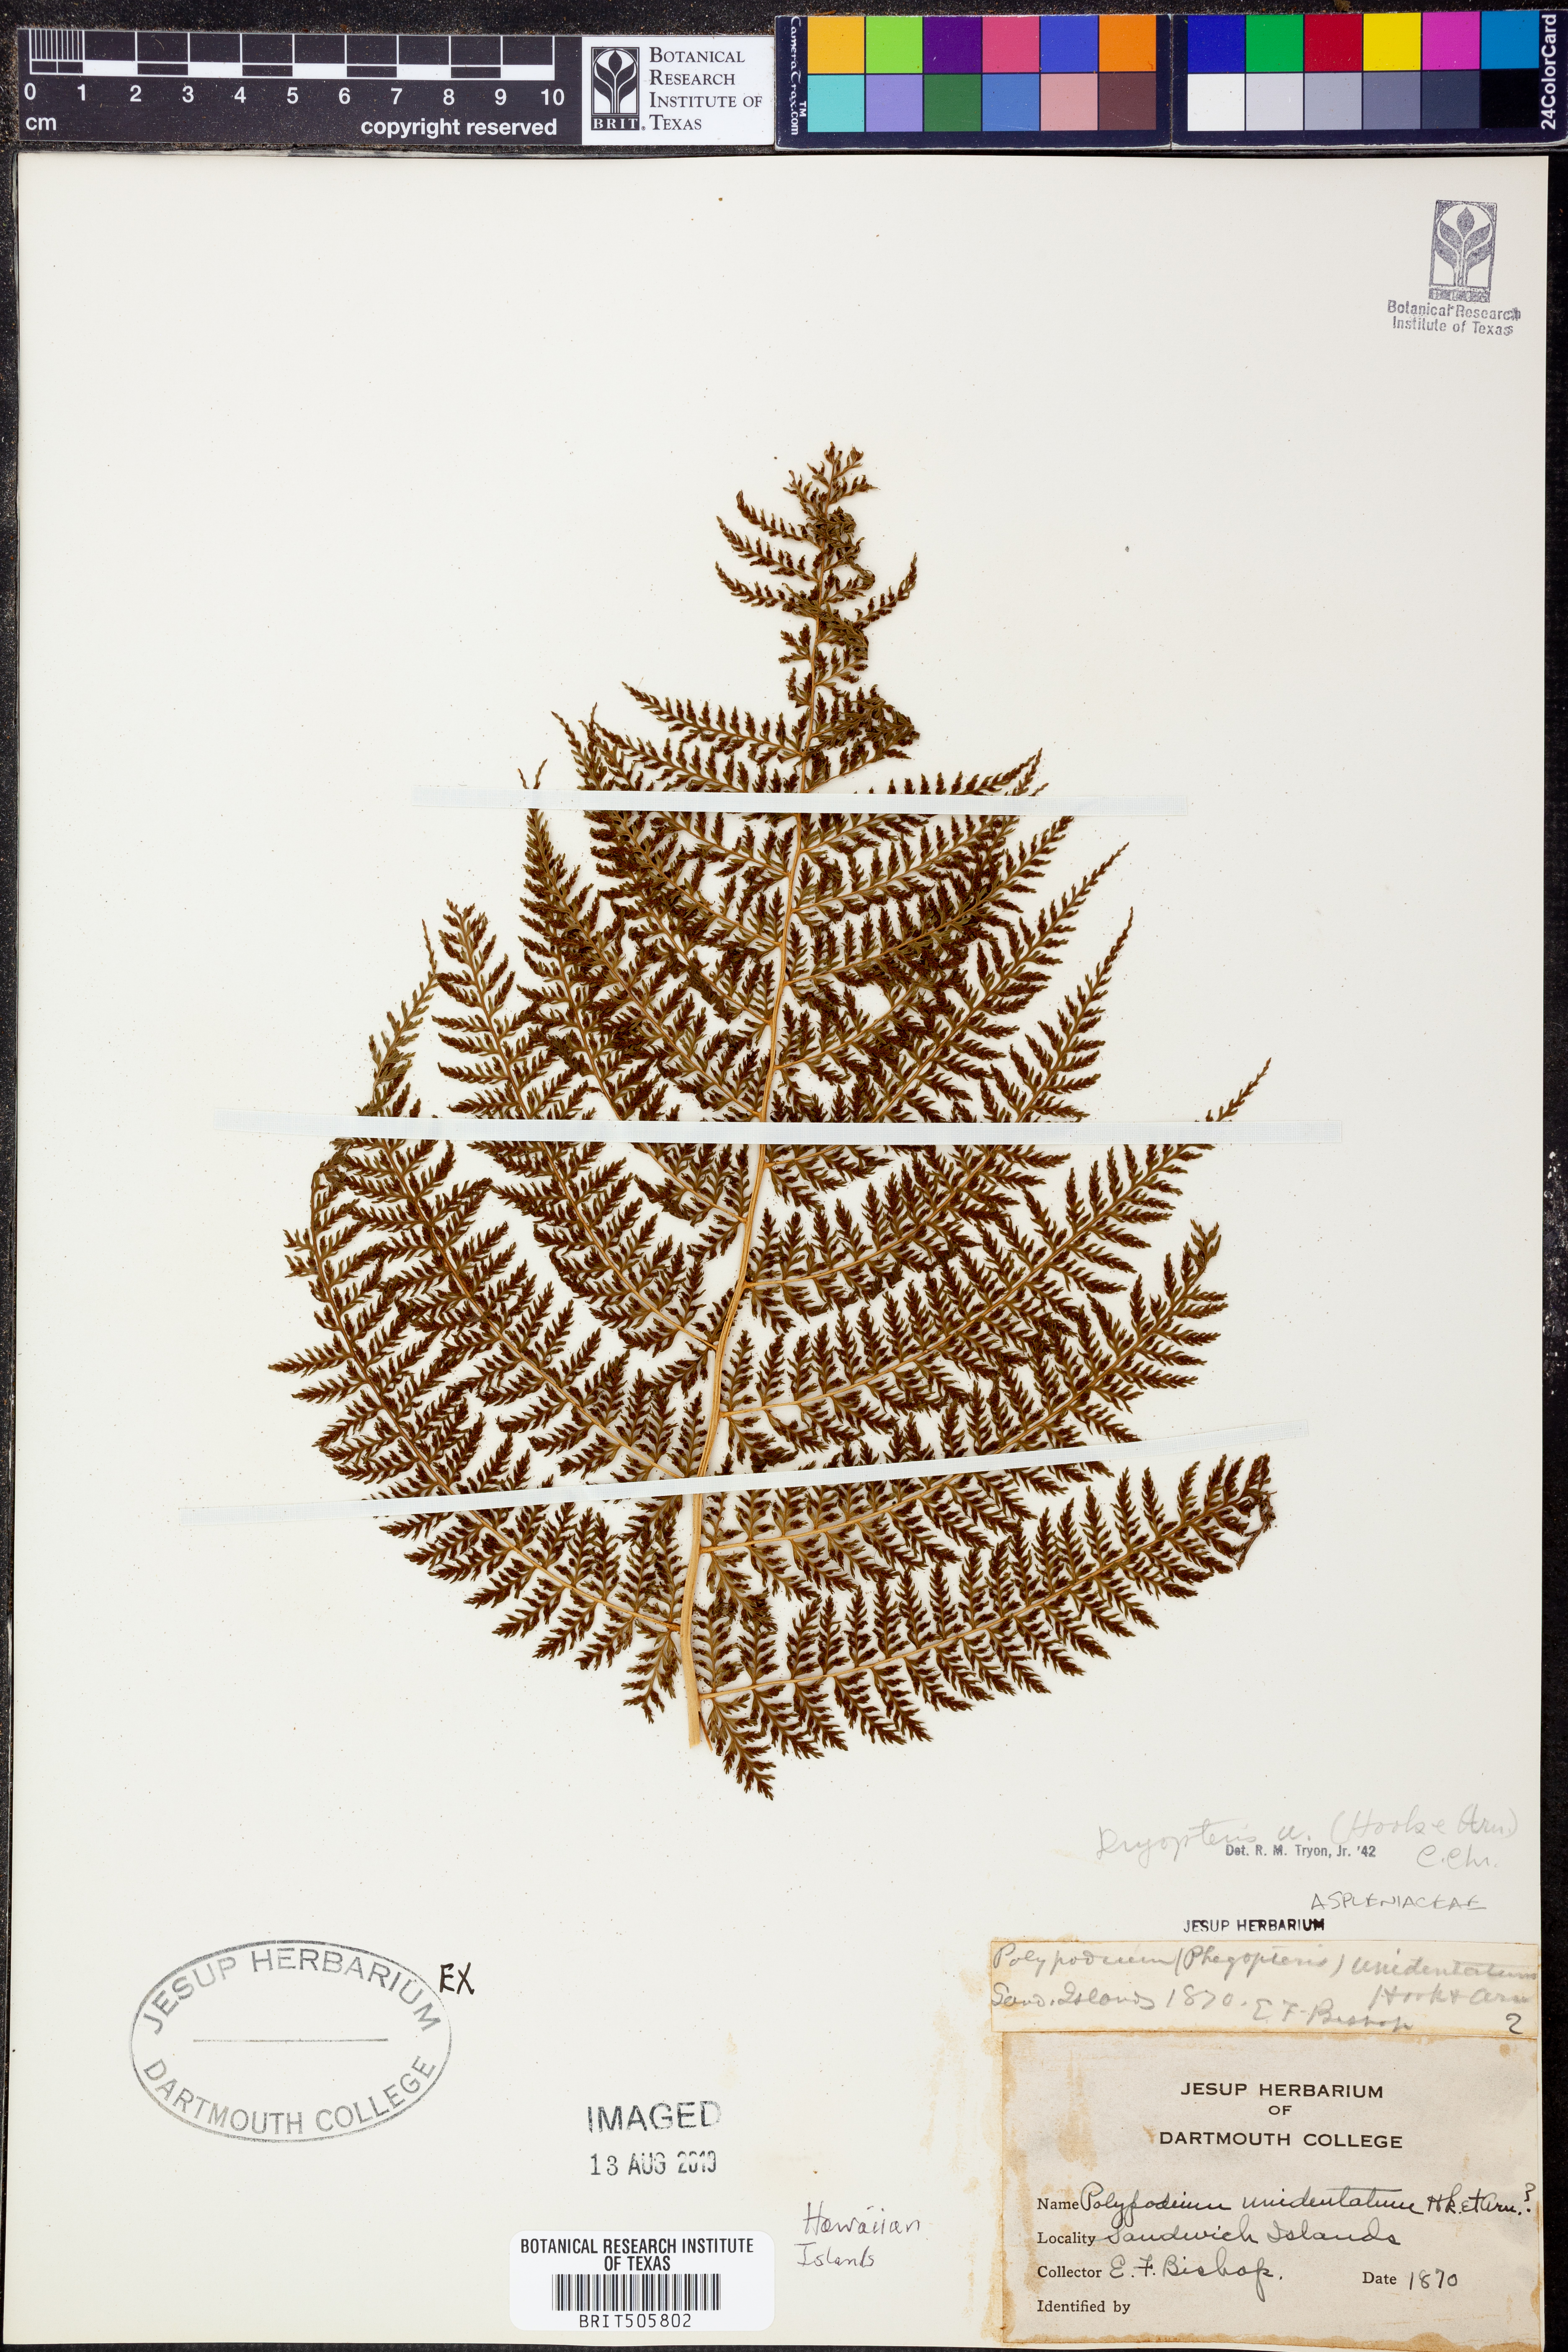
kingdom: Plantae
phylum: Tracheophyta
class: Polypodiopsida
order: Polypodiales
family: Dryopteridaceae
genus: Dryopteris
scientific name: Dryopteris unidentata
